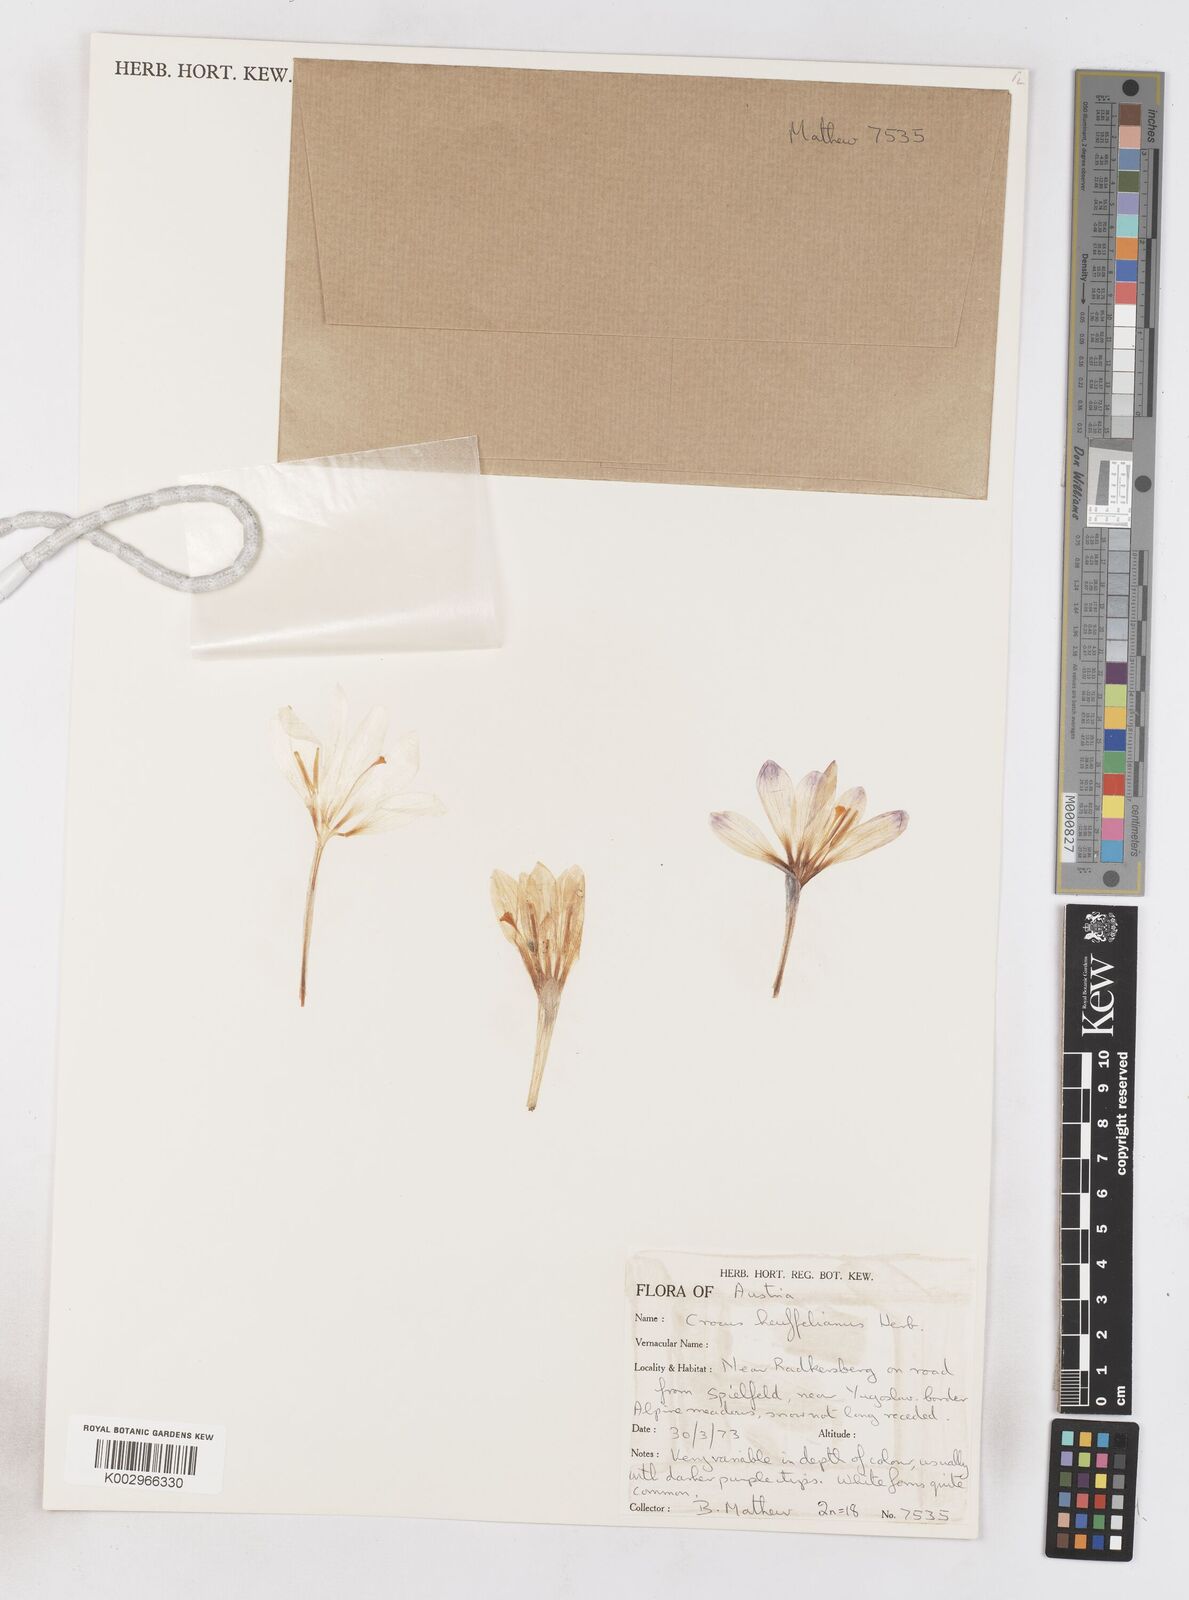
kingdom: Plantae
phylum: Tracheophyta
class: Liliopsida
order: Asparagales
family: Iridaceae
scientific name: Iridaceae
